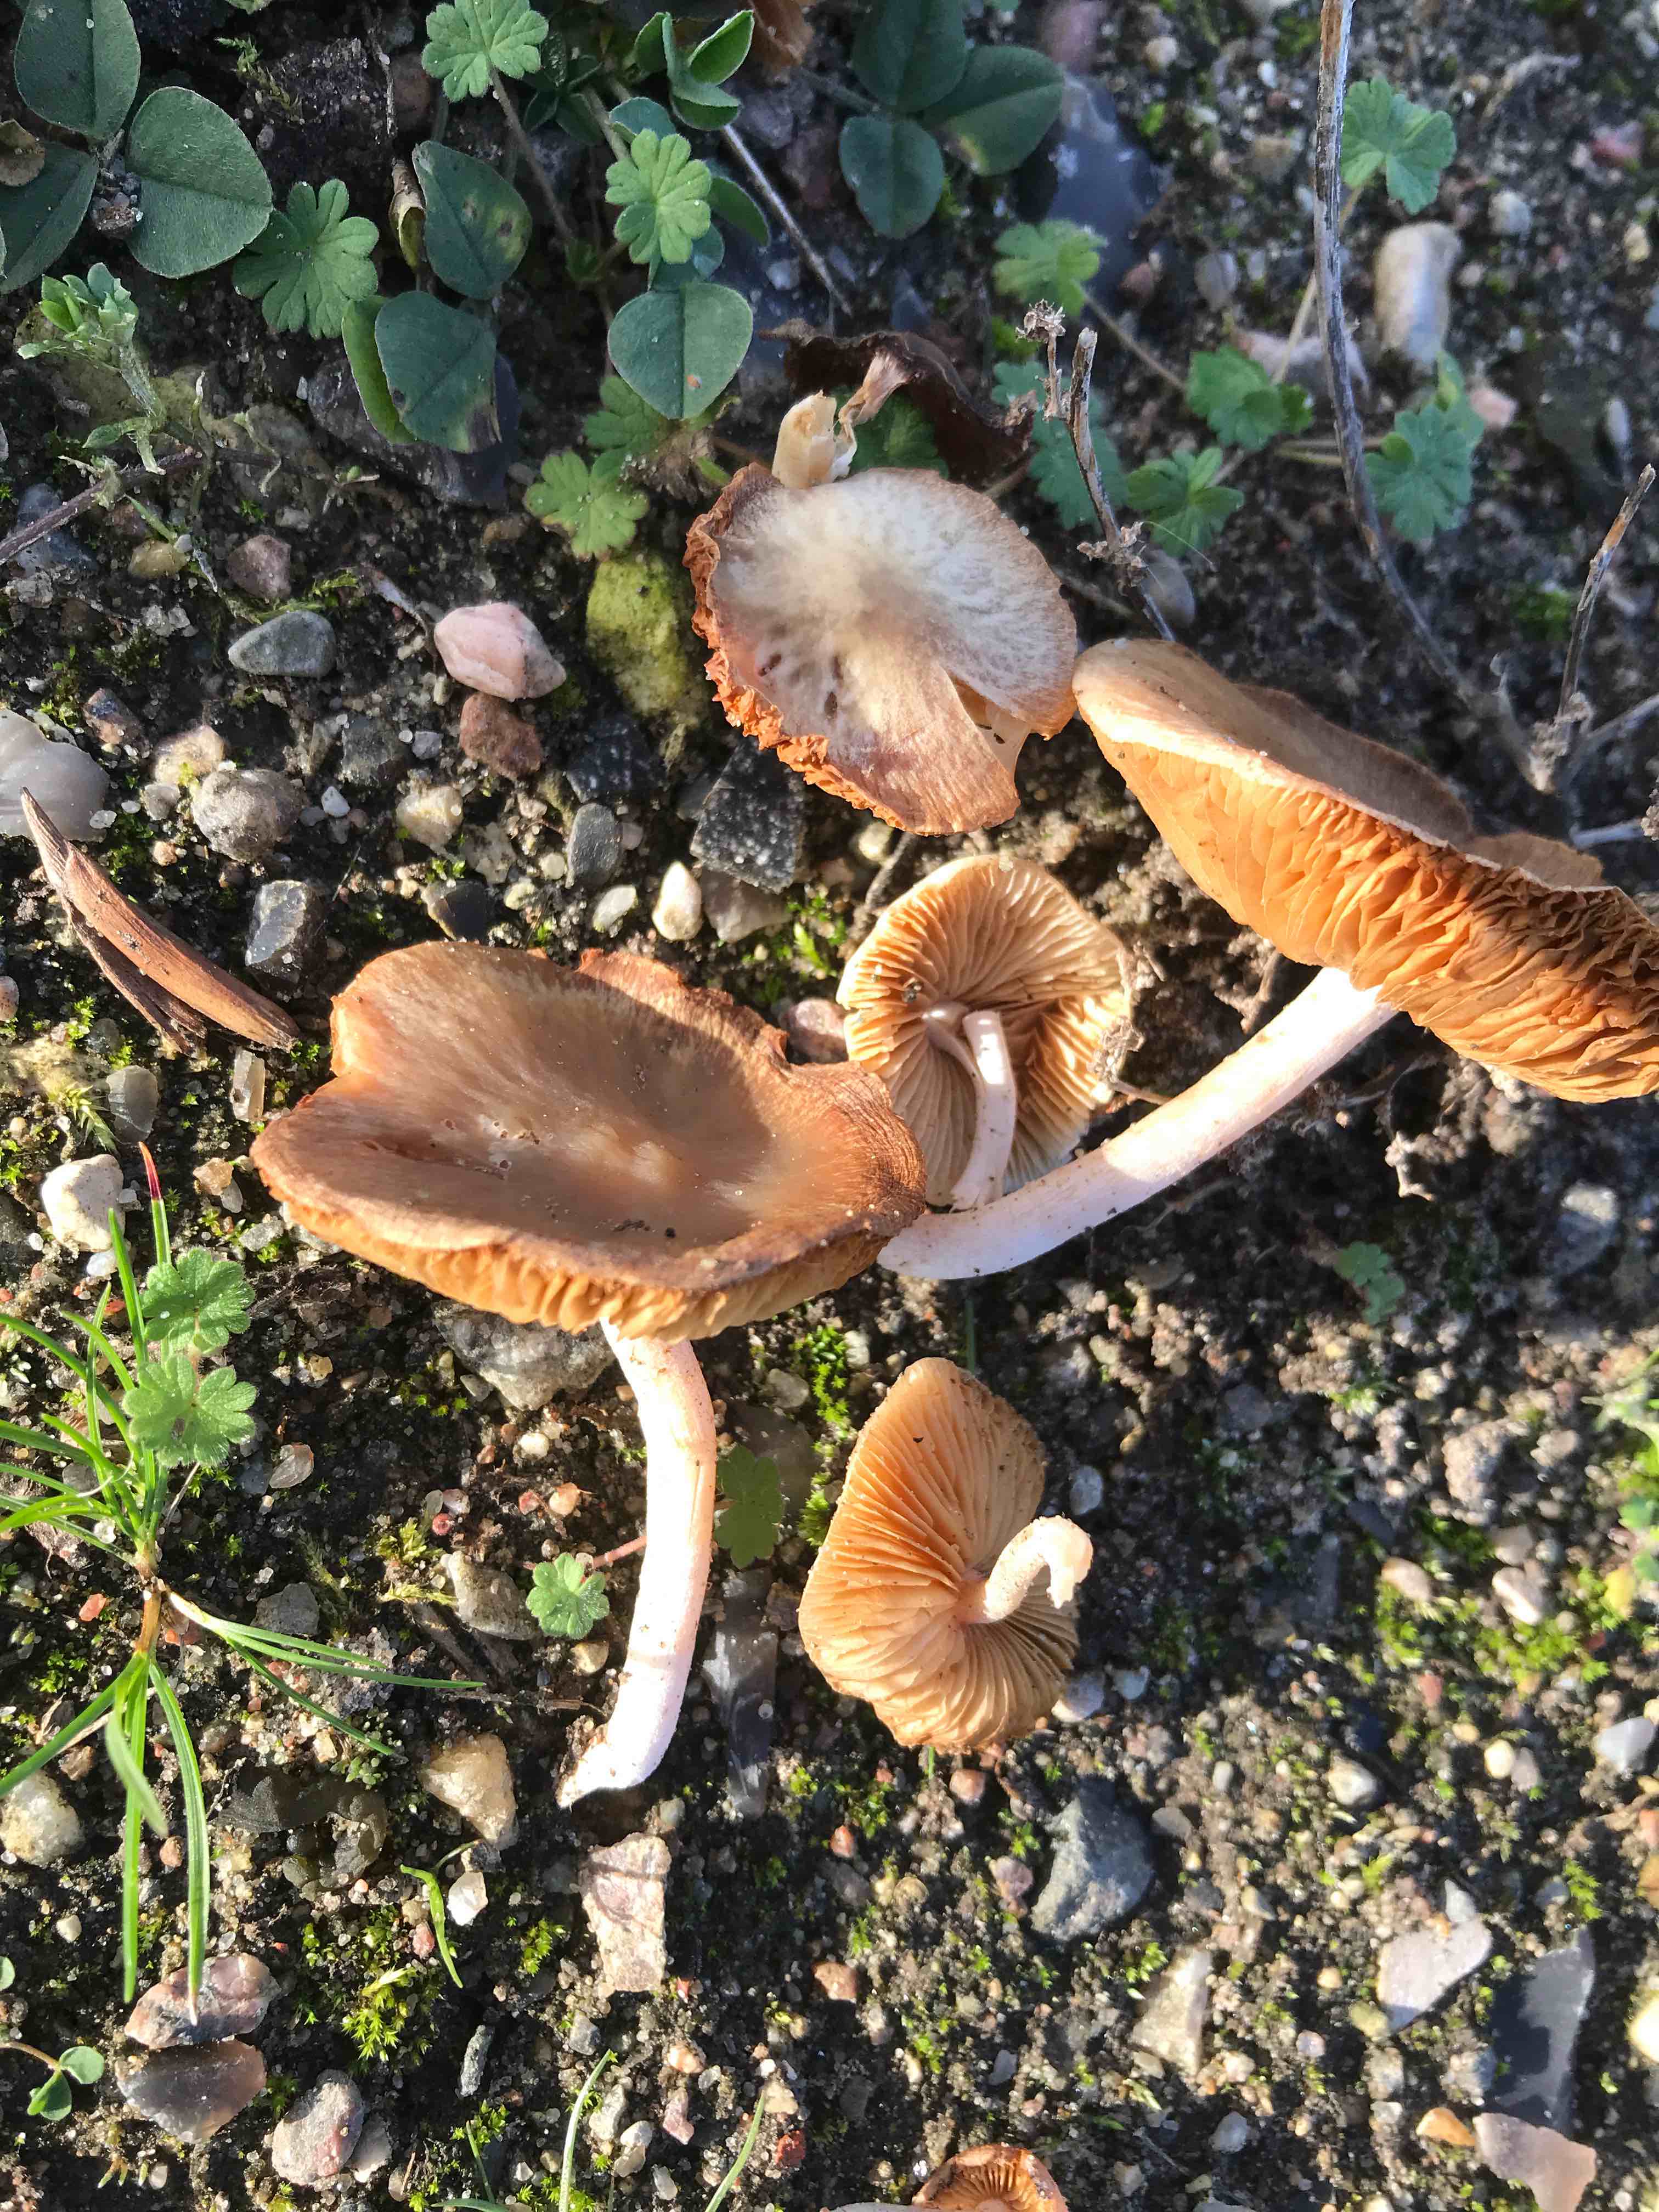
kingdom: Fungi
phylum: Basidiomycota
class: Agaricomycetes
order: Agaricales
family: Bolbitiaceae
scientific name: Bolbitiaceae
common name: gulhatfamilien
